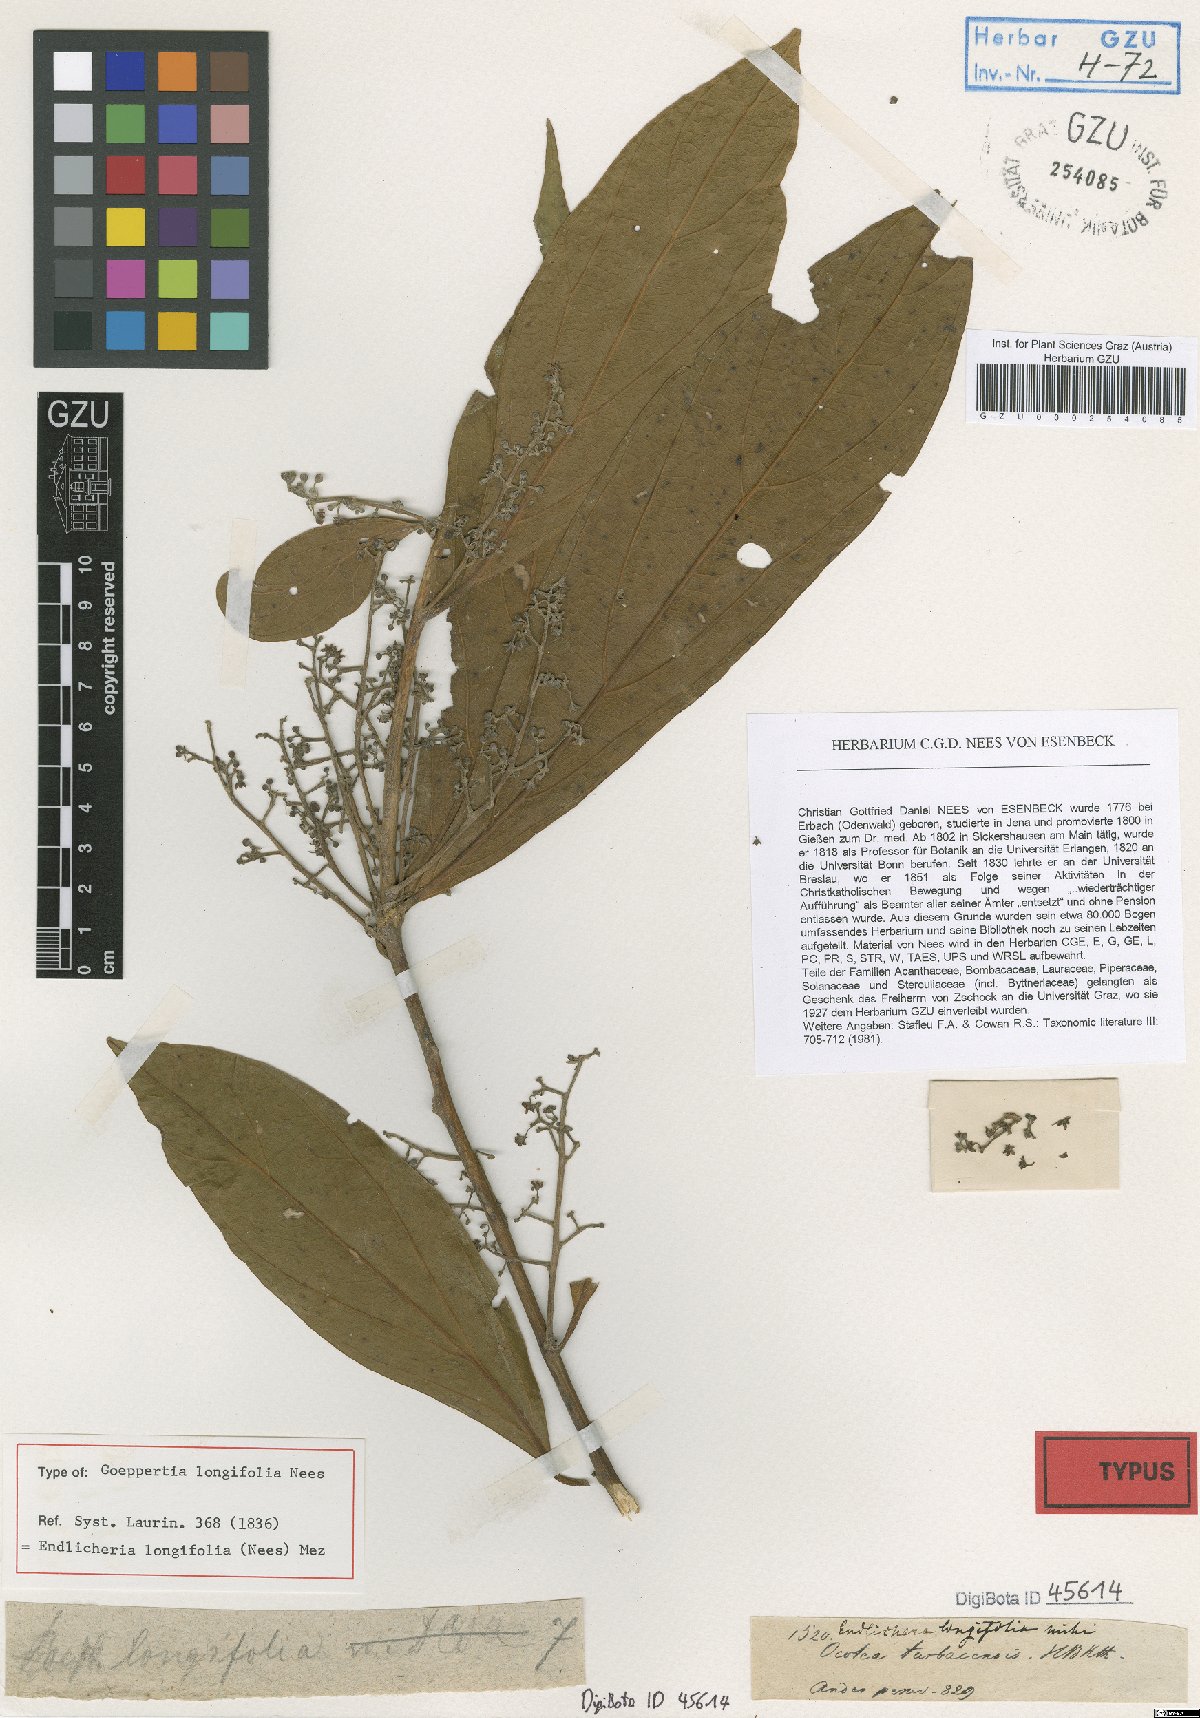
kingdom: Plantae
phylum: Tracheophyta
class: Magnoliopsida
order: Laurales
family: Lauraceae
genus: Endlicheria
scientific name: Endlicheria paniculata
